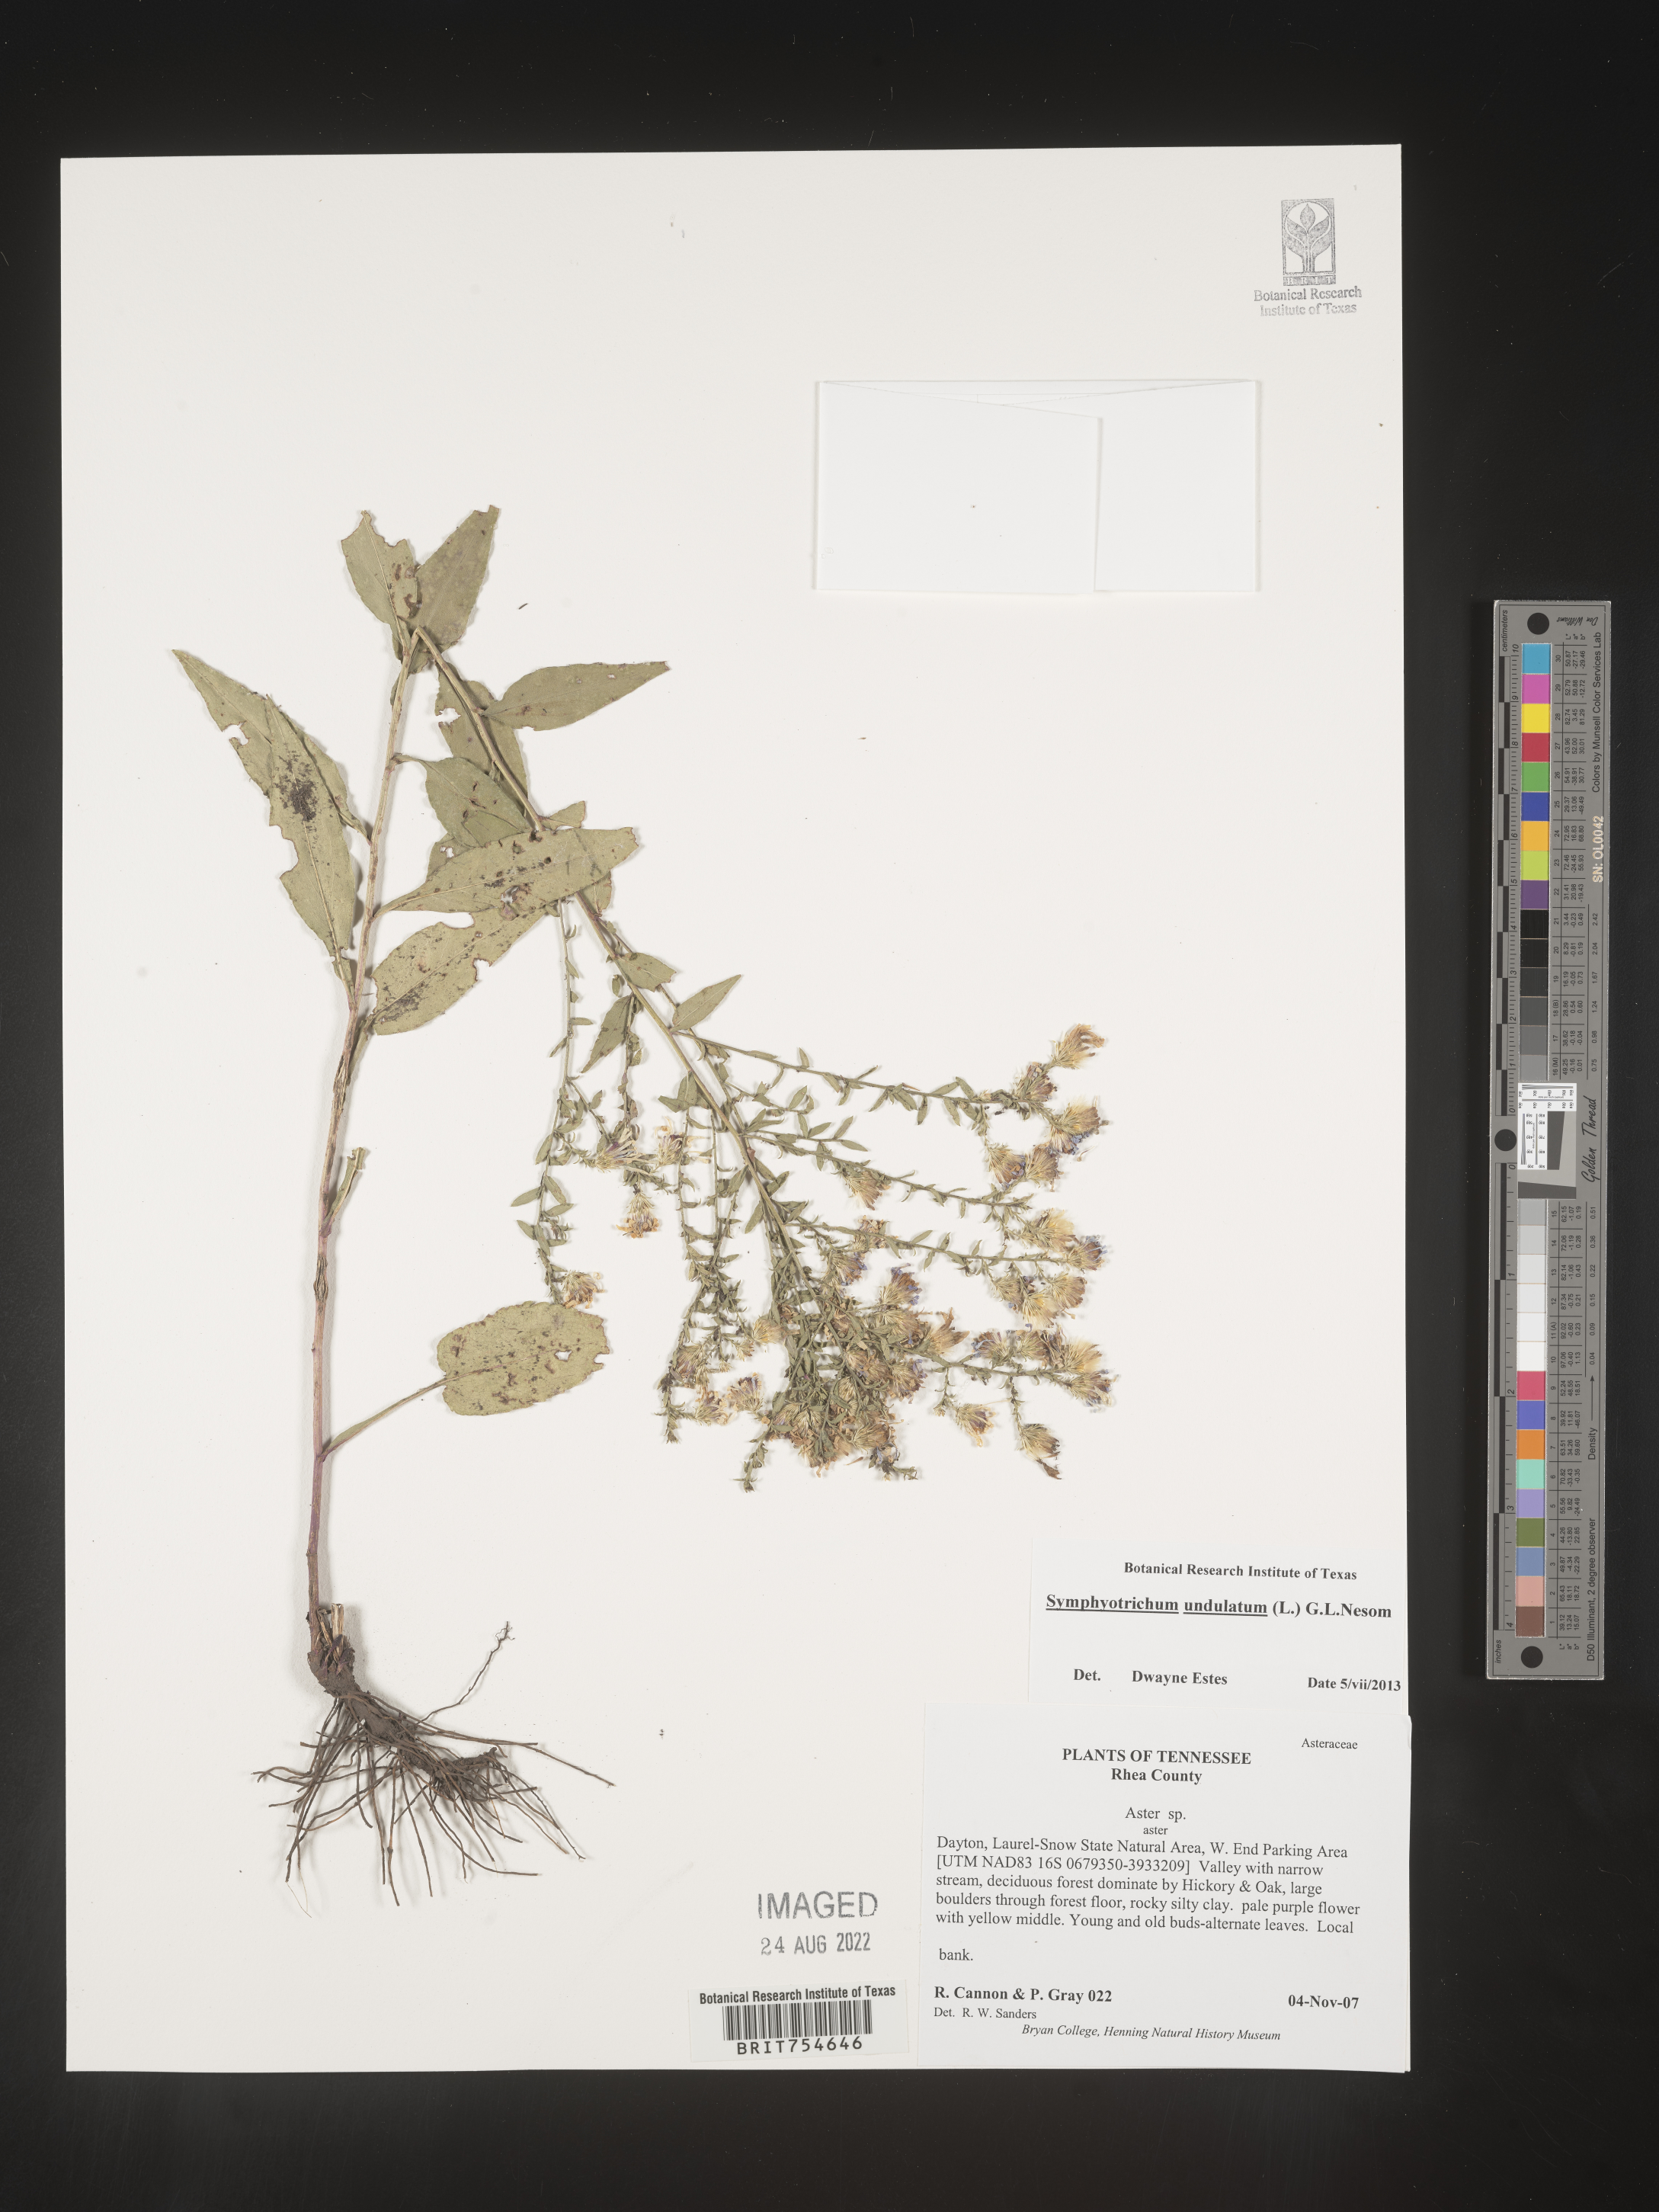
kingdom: Plantae
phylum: Tracheophyta
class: Magnoliopsida
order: Asterales
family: Asteraceae
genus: Symphyotrichum
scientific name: Symphyotrichum undulatum
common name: Clasping heart-leaf aster
